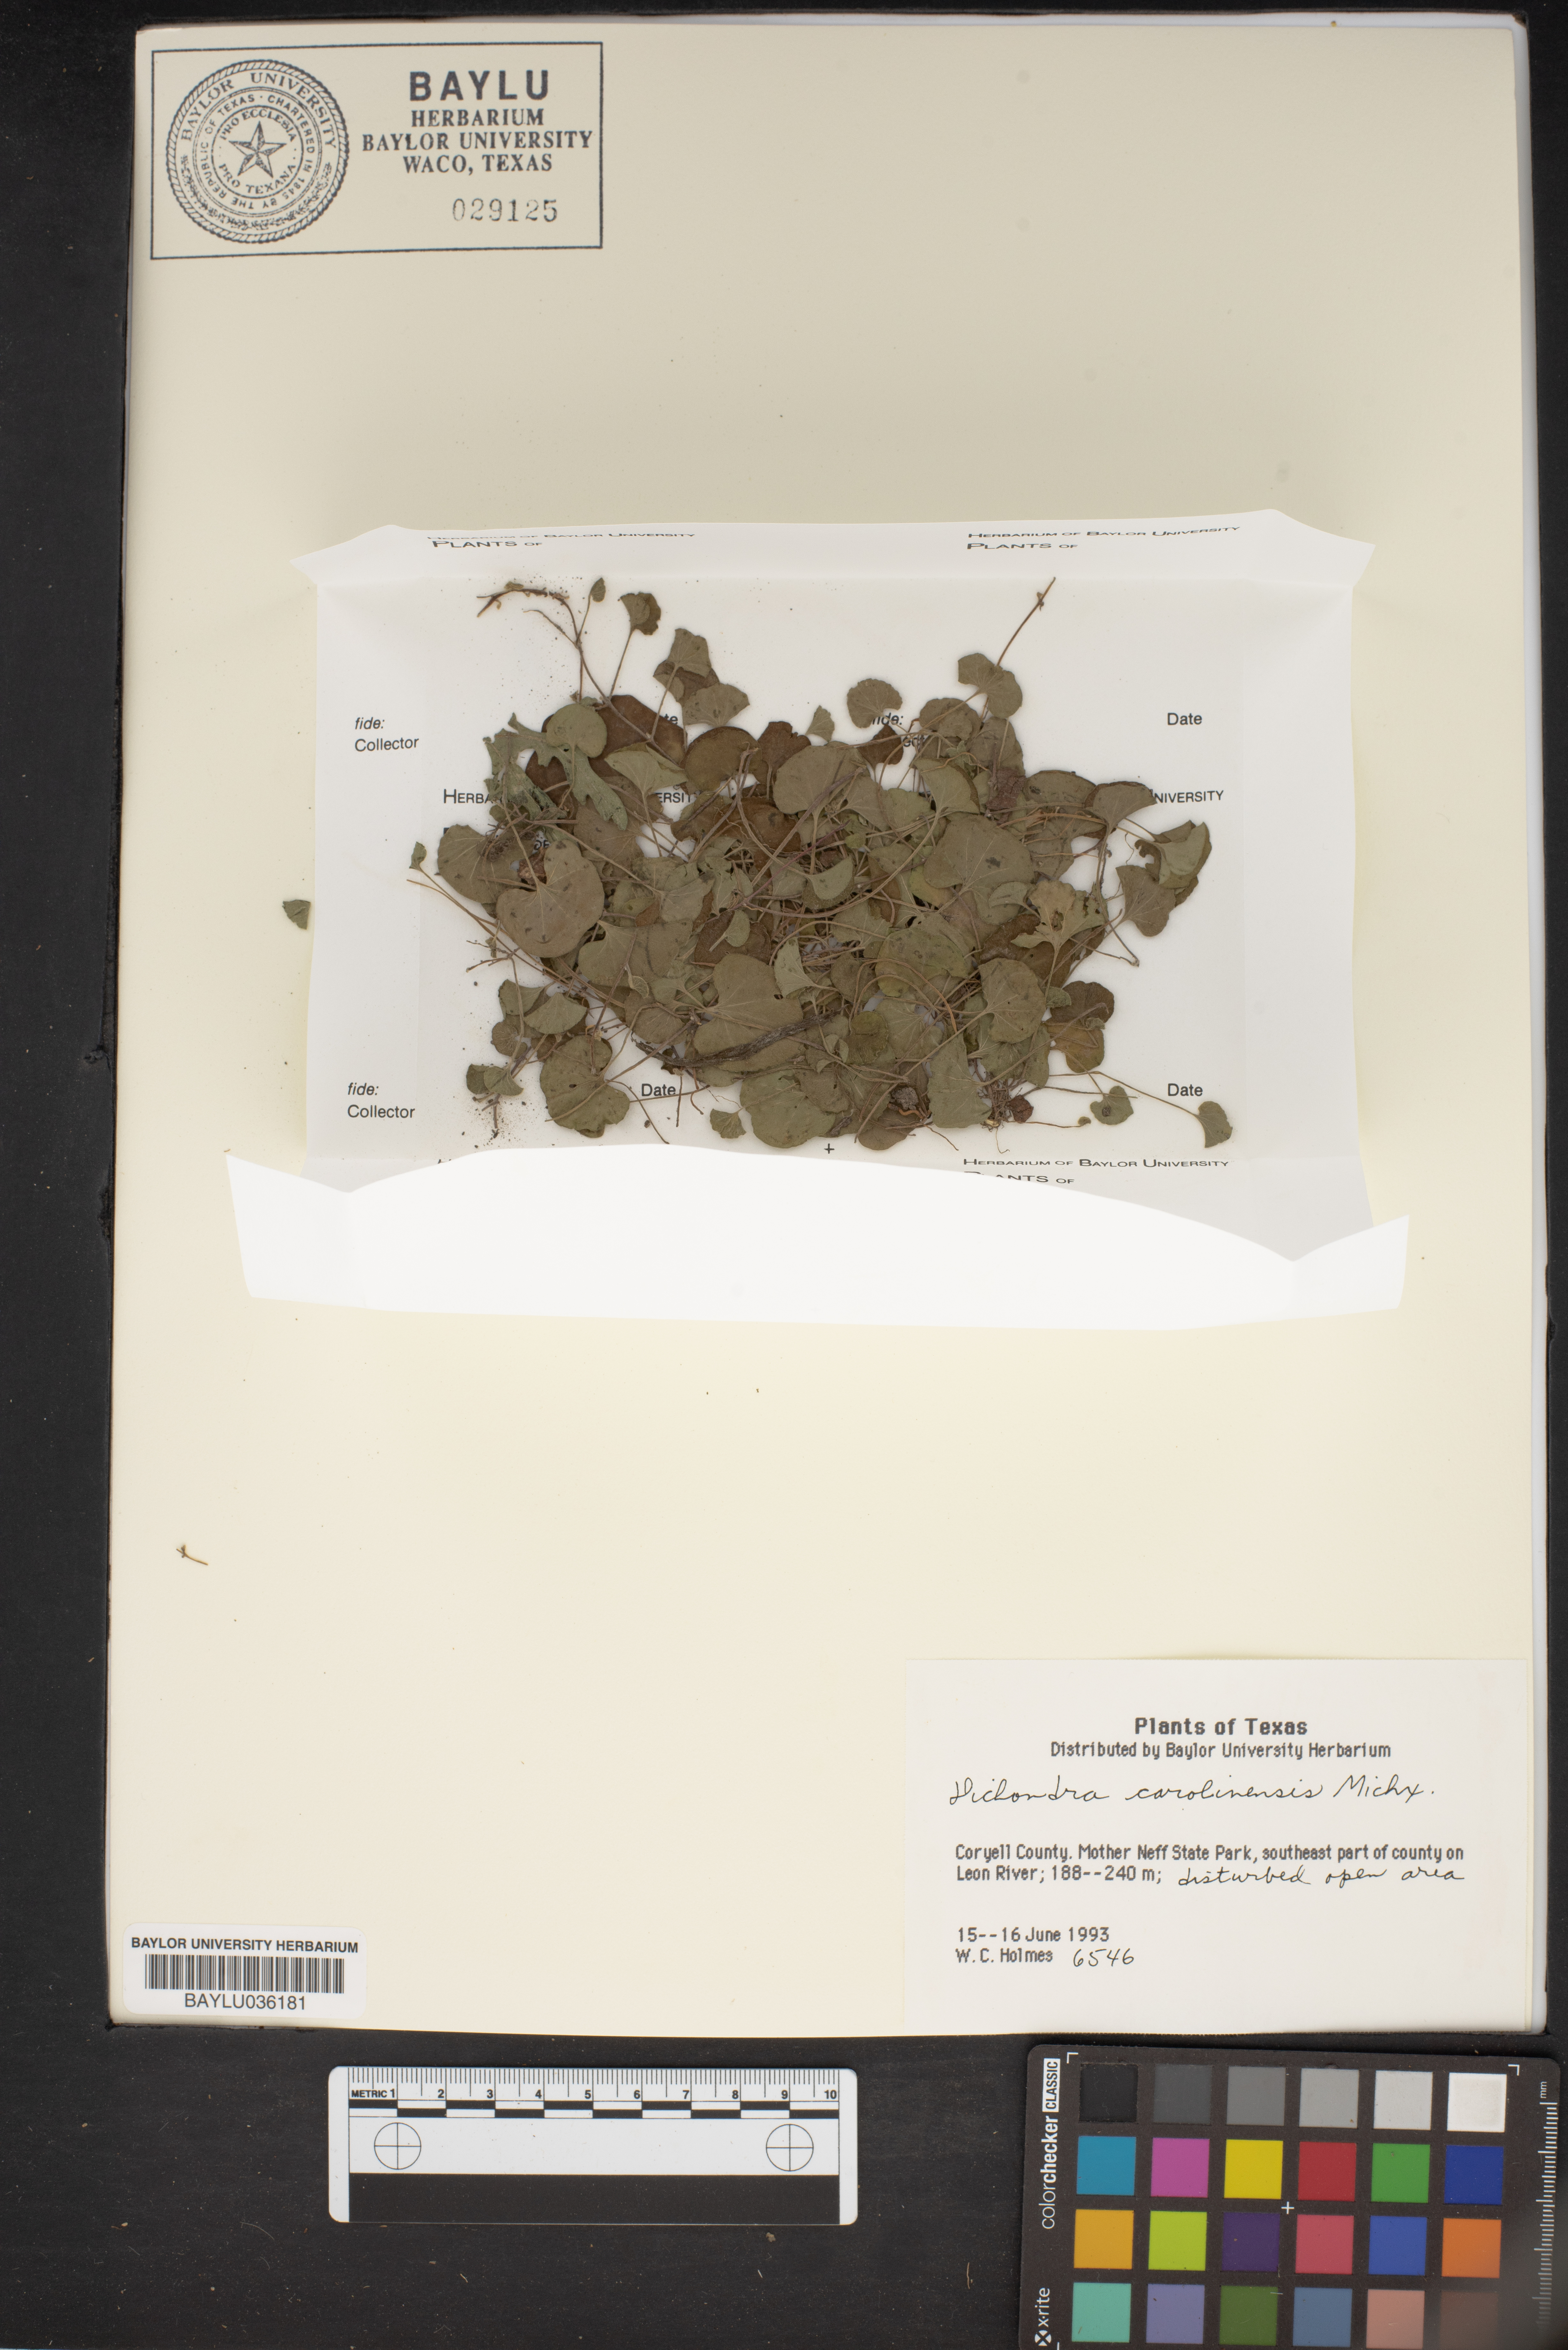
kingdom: Plantae
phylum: Tracheophyta
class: Magnoliopsida
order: Solanales
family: Convolvulaceae
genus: Dichondra
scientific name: Dichondra carolinensis
